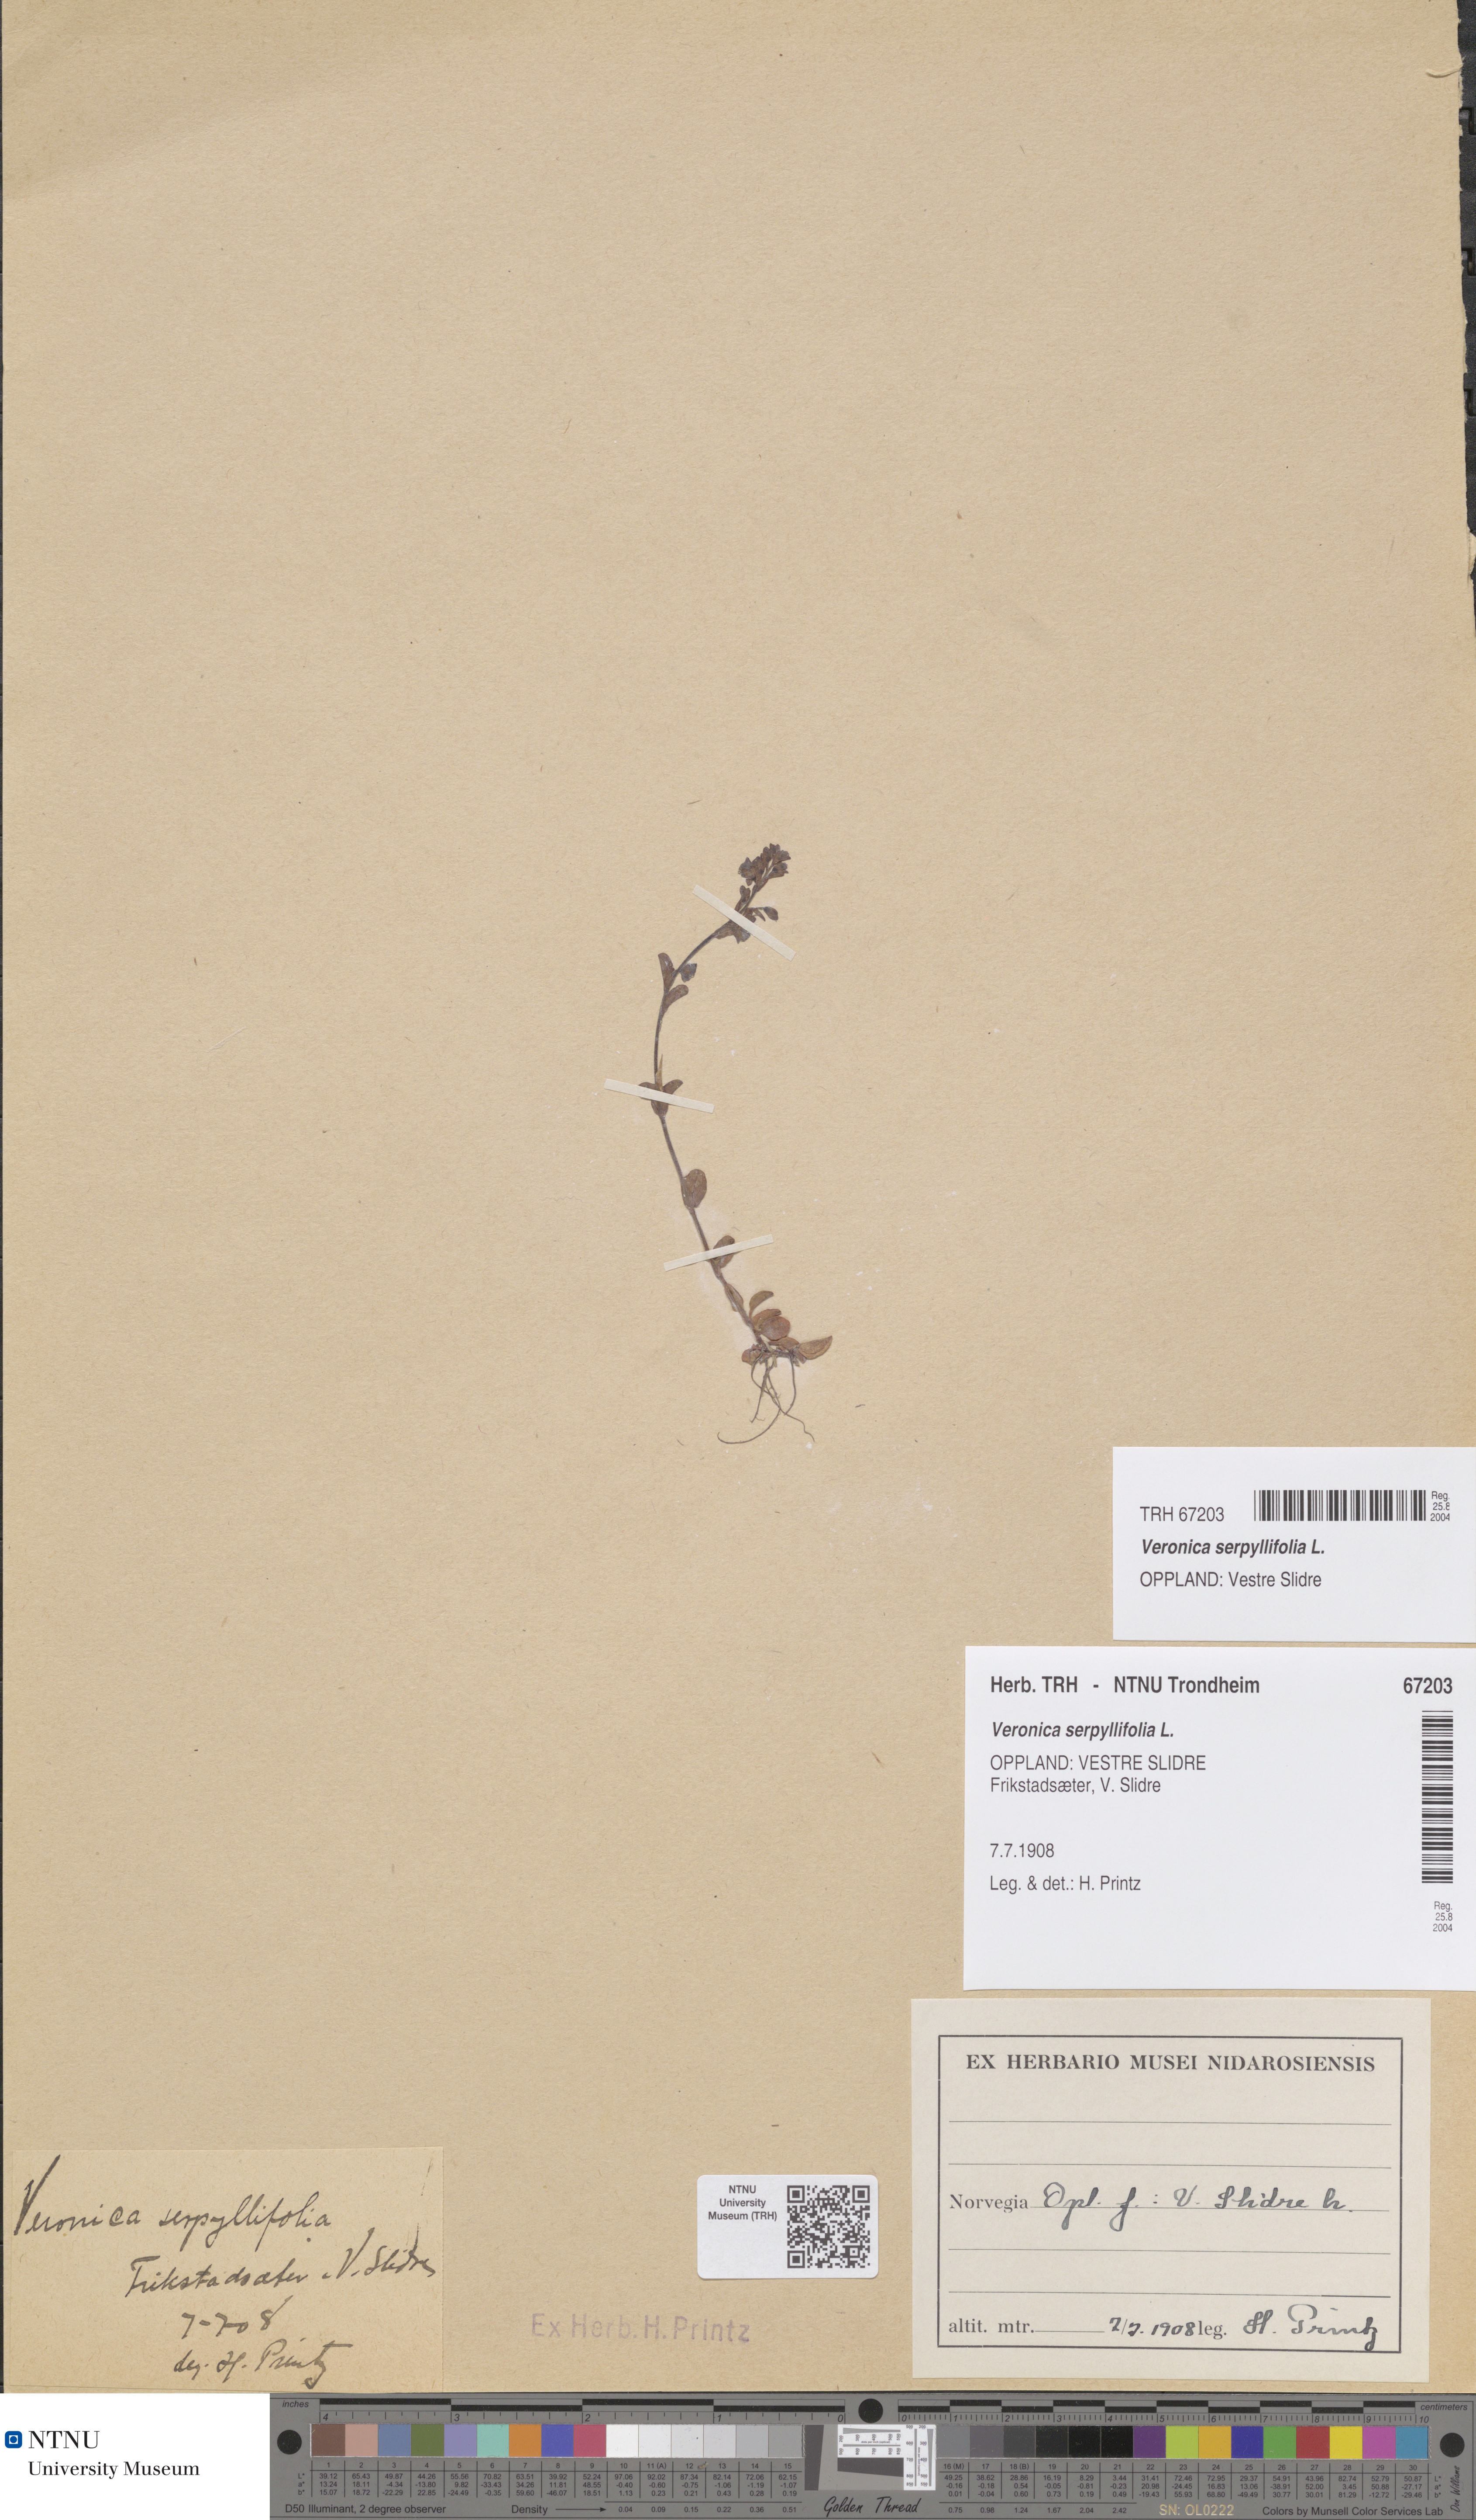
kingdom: Plantae
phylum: Tracheophyta
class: Magnoliopsida
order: Lamiales
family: Plantaginaceae
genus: Veronica
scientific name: Veronica serpyllifolia
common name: Thyme-leaved speedwell
